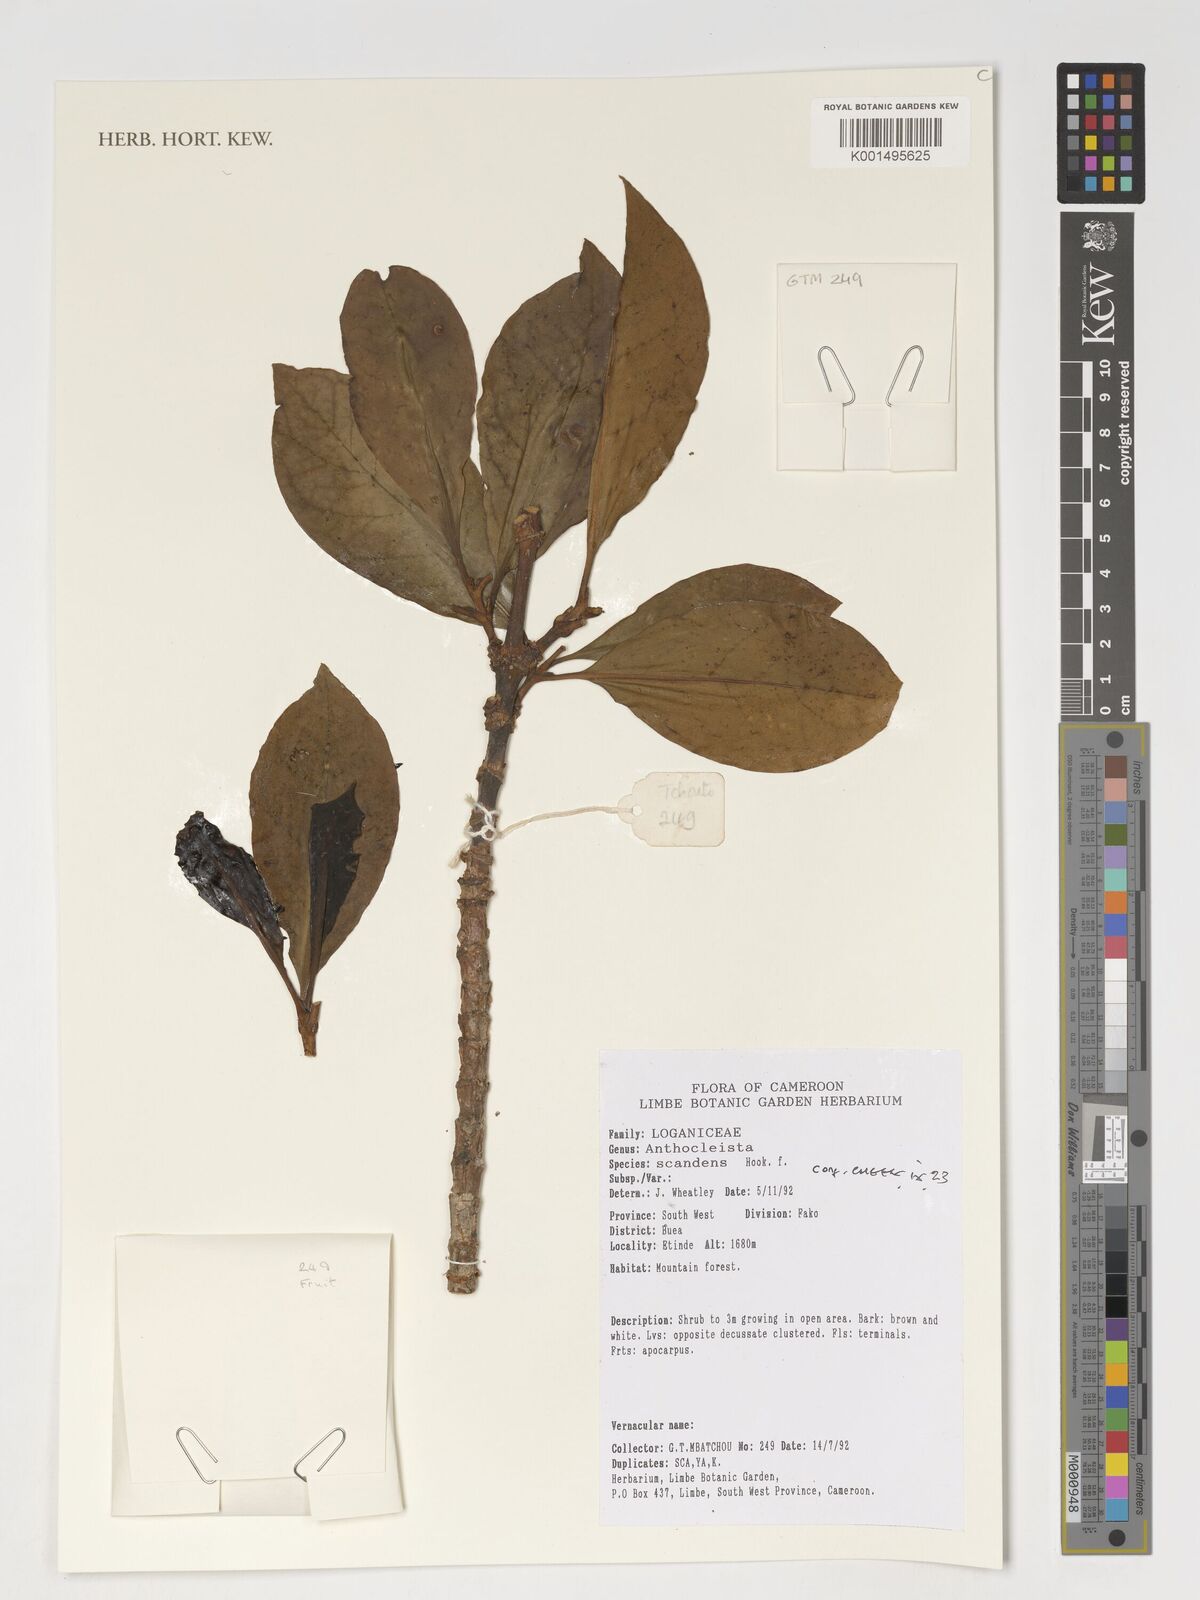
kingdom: Plantae
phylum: Tracheophyta
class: Magnoliopsida
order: Gentianales
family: Gentianaceae
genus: Anthocleista
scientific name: Anthocleista scandens
